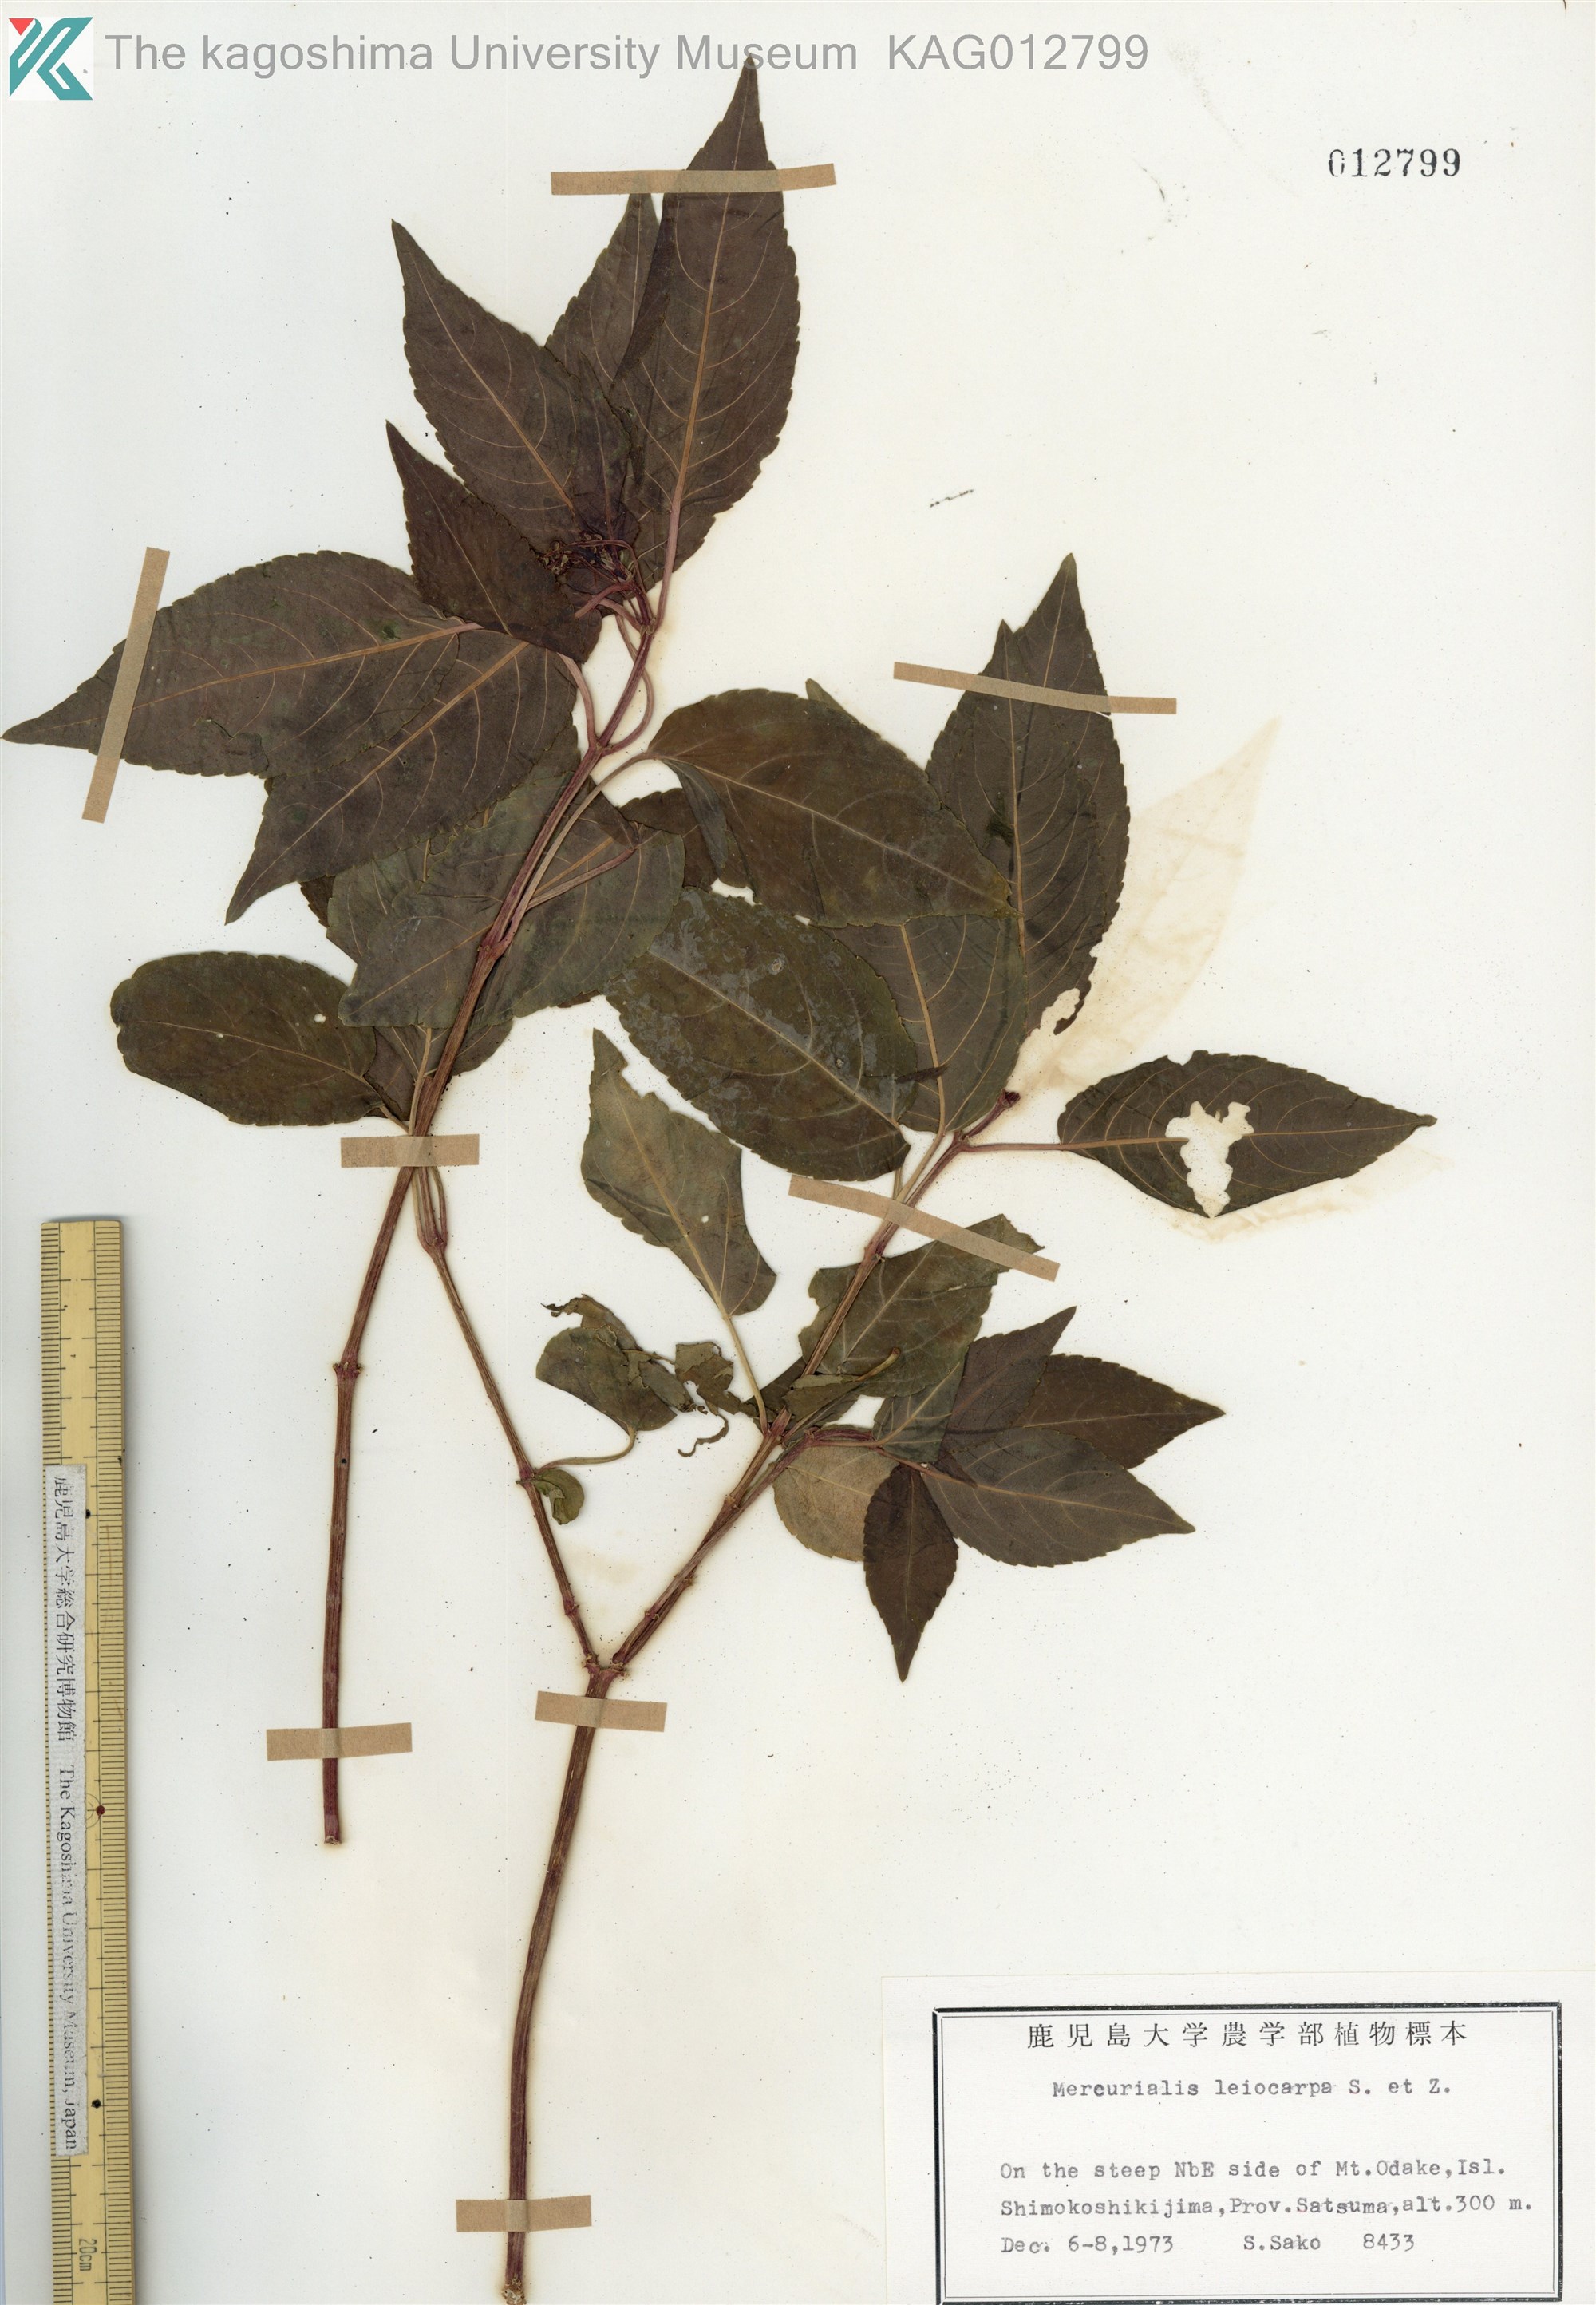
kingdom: Plantae
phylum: Tracheophyta
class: Magnoliopsida
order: Malpighiales
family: Euphorbiaceae
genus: Mercurialis
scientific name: Mercurialis leiocarpa
